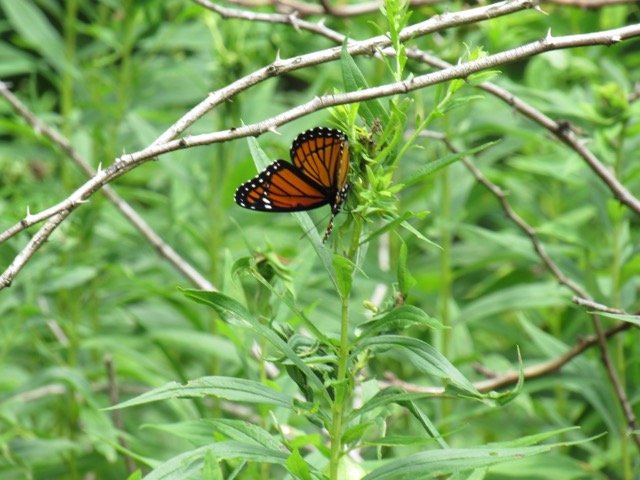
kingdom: Animalia
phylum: Arthropoda
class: Insecta
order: Lepidoptera
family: Nymphalidae
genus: Limenitis
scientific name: Limenitis archippus
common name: Viceroy
